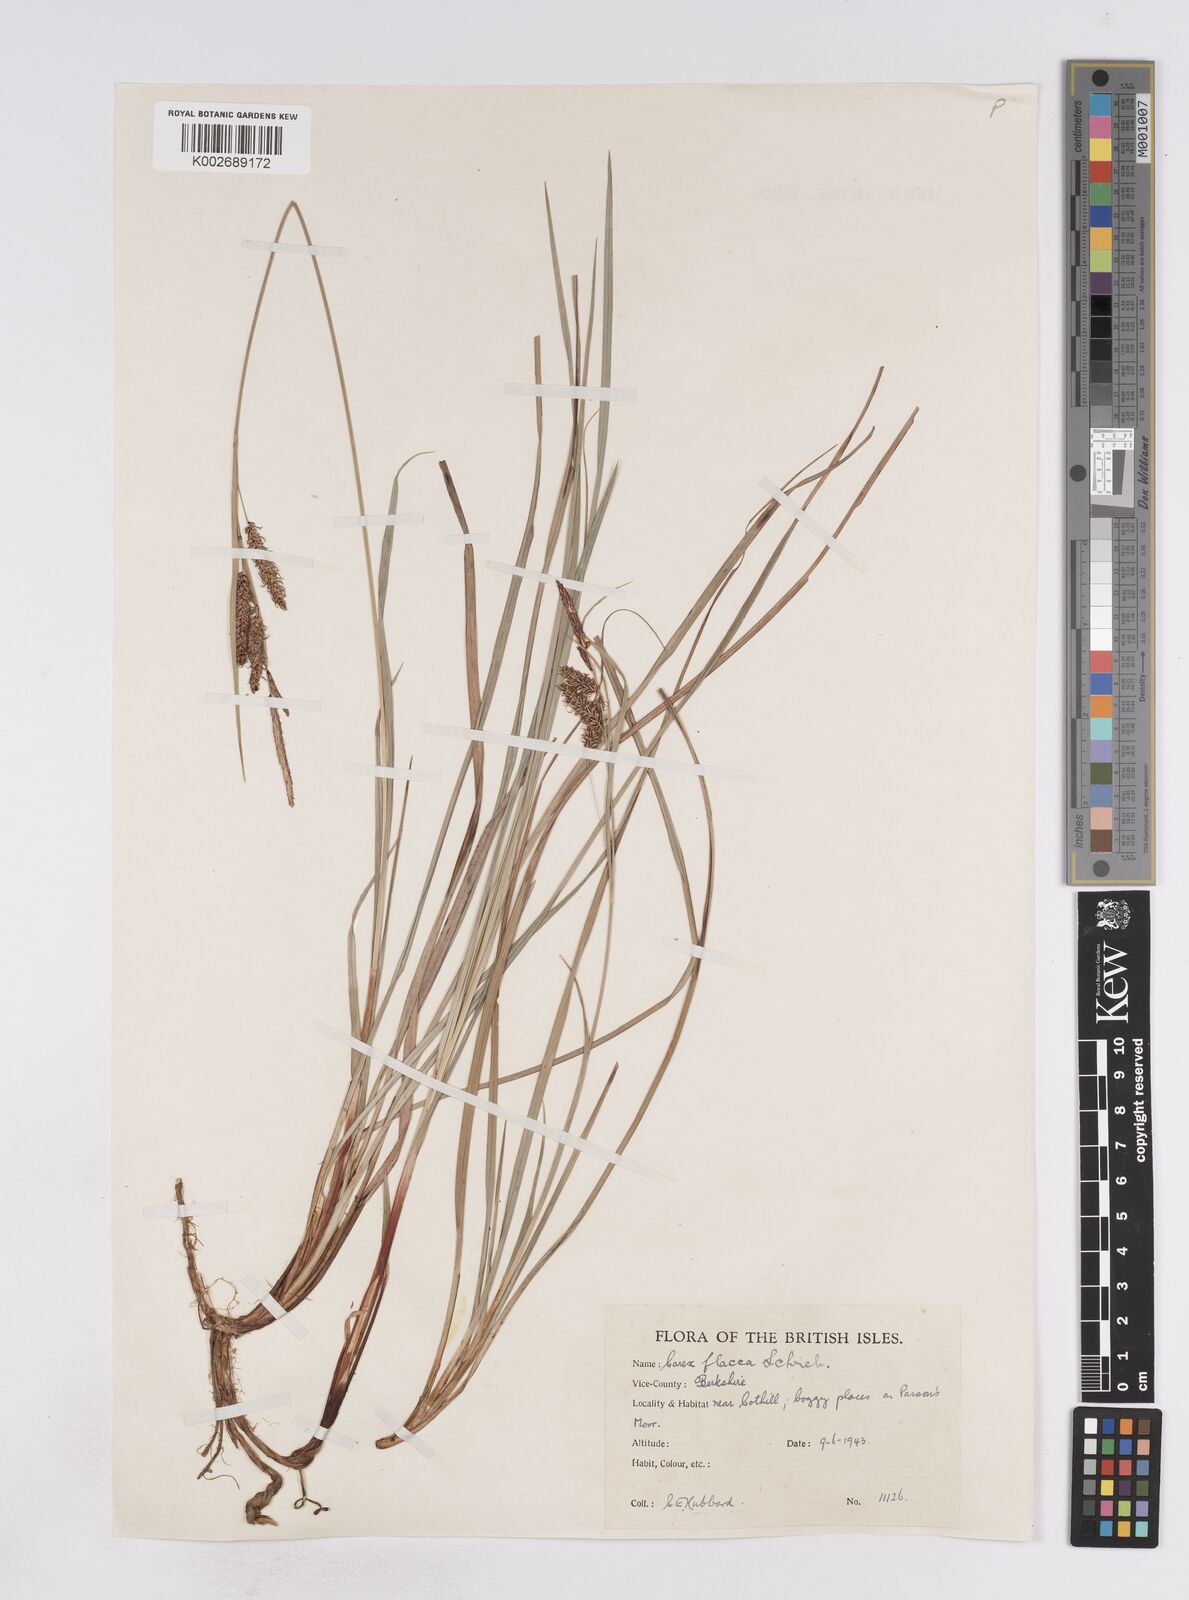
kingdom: Plantae
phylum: Tracheophyta
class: Liliopsida
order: Poales
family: Cyperaceae
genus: Carex
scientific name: Carex flacca
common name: Glaucous sedge
